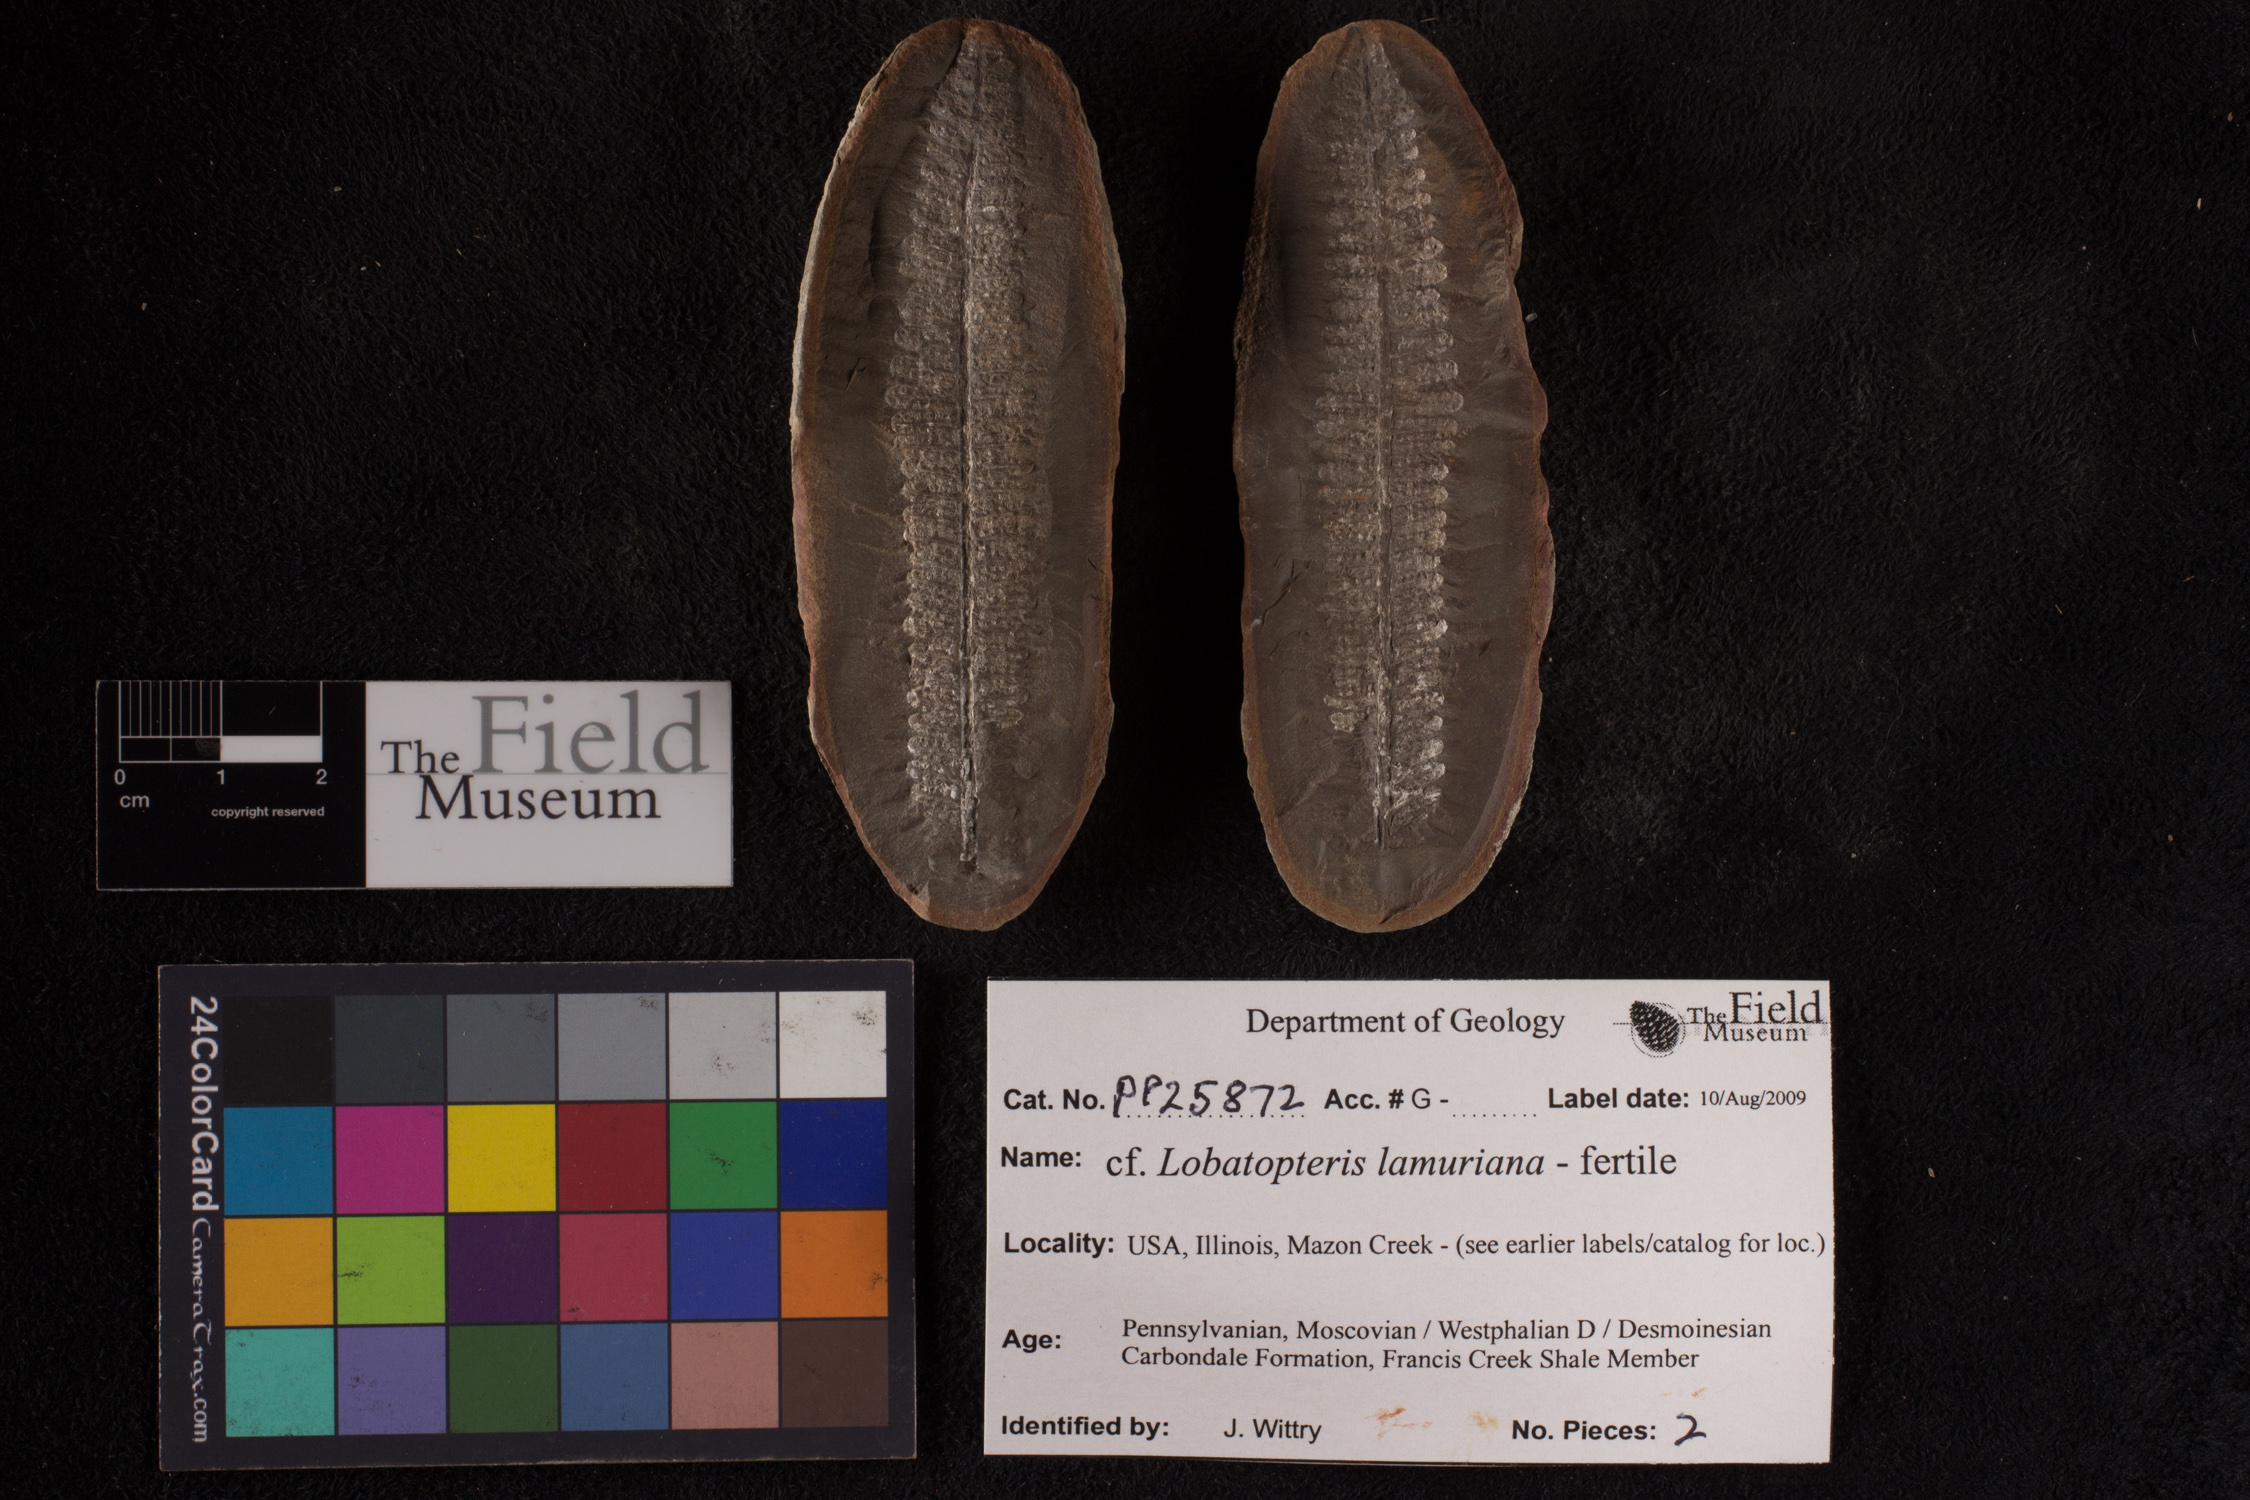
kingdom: Plantae
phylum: Tracheophyta
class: Polypodiopsida
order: Marattiales
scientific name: Marattiales
